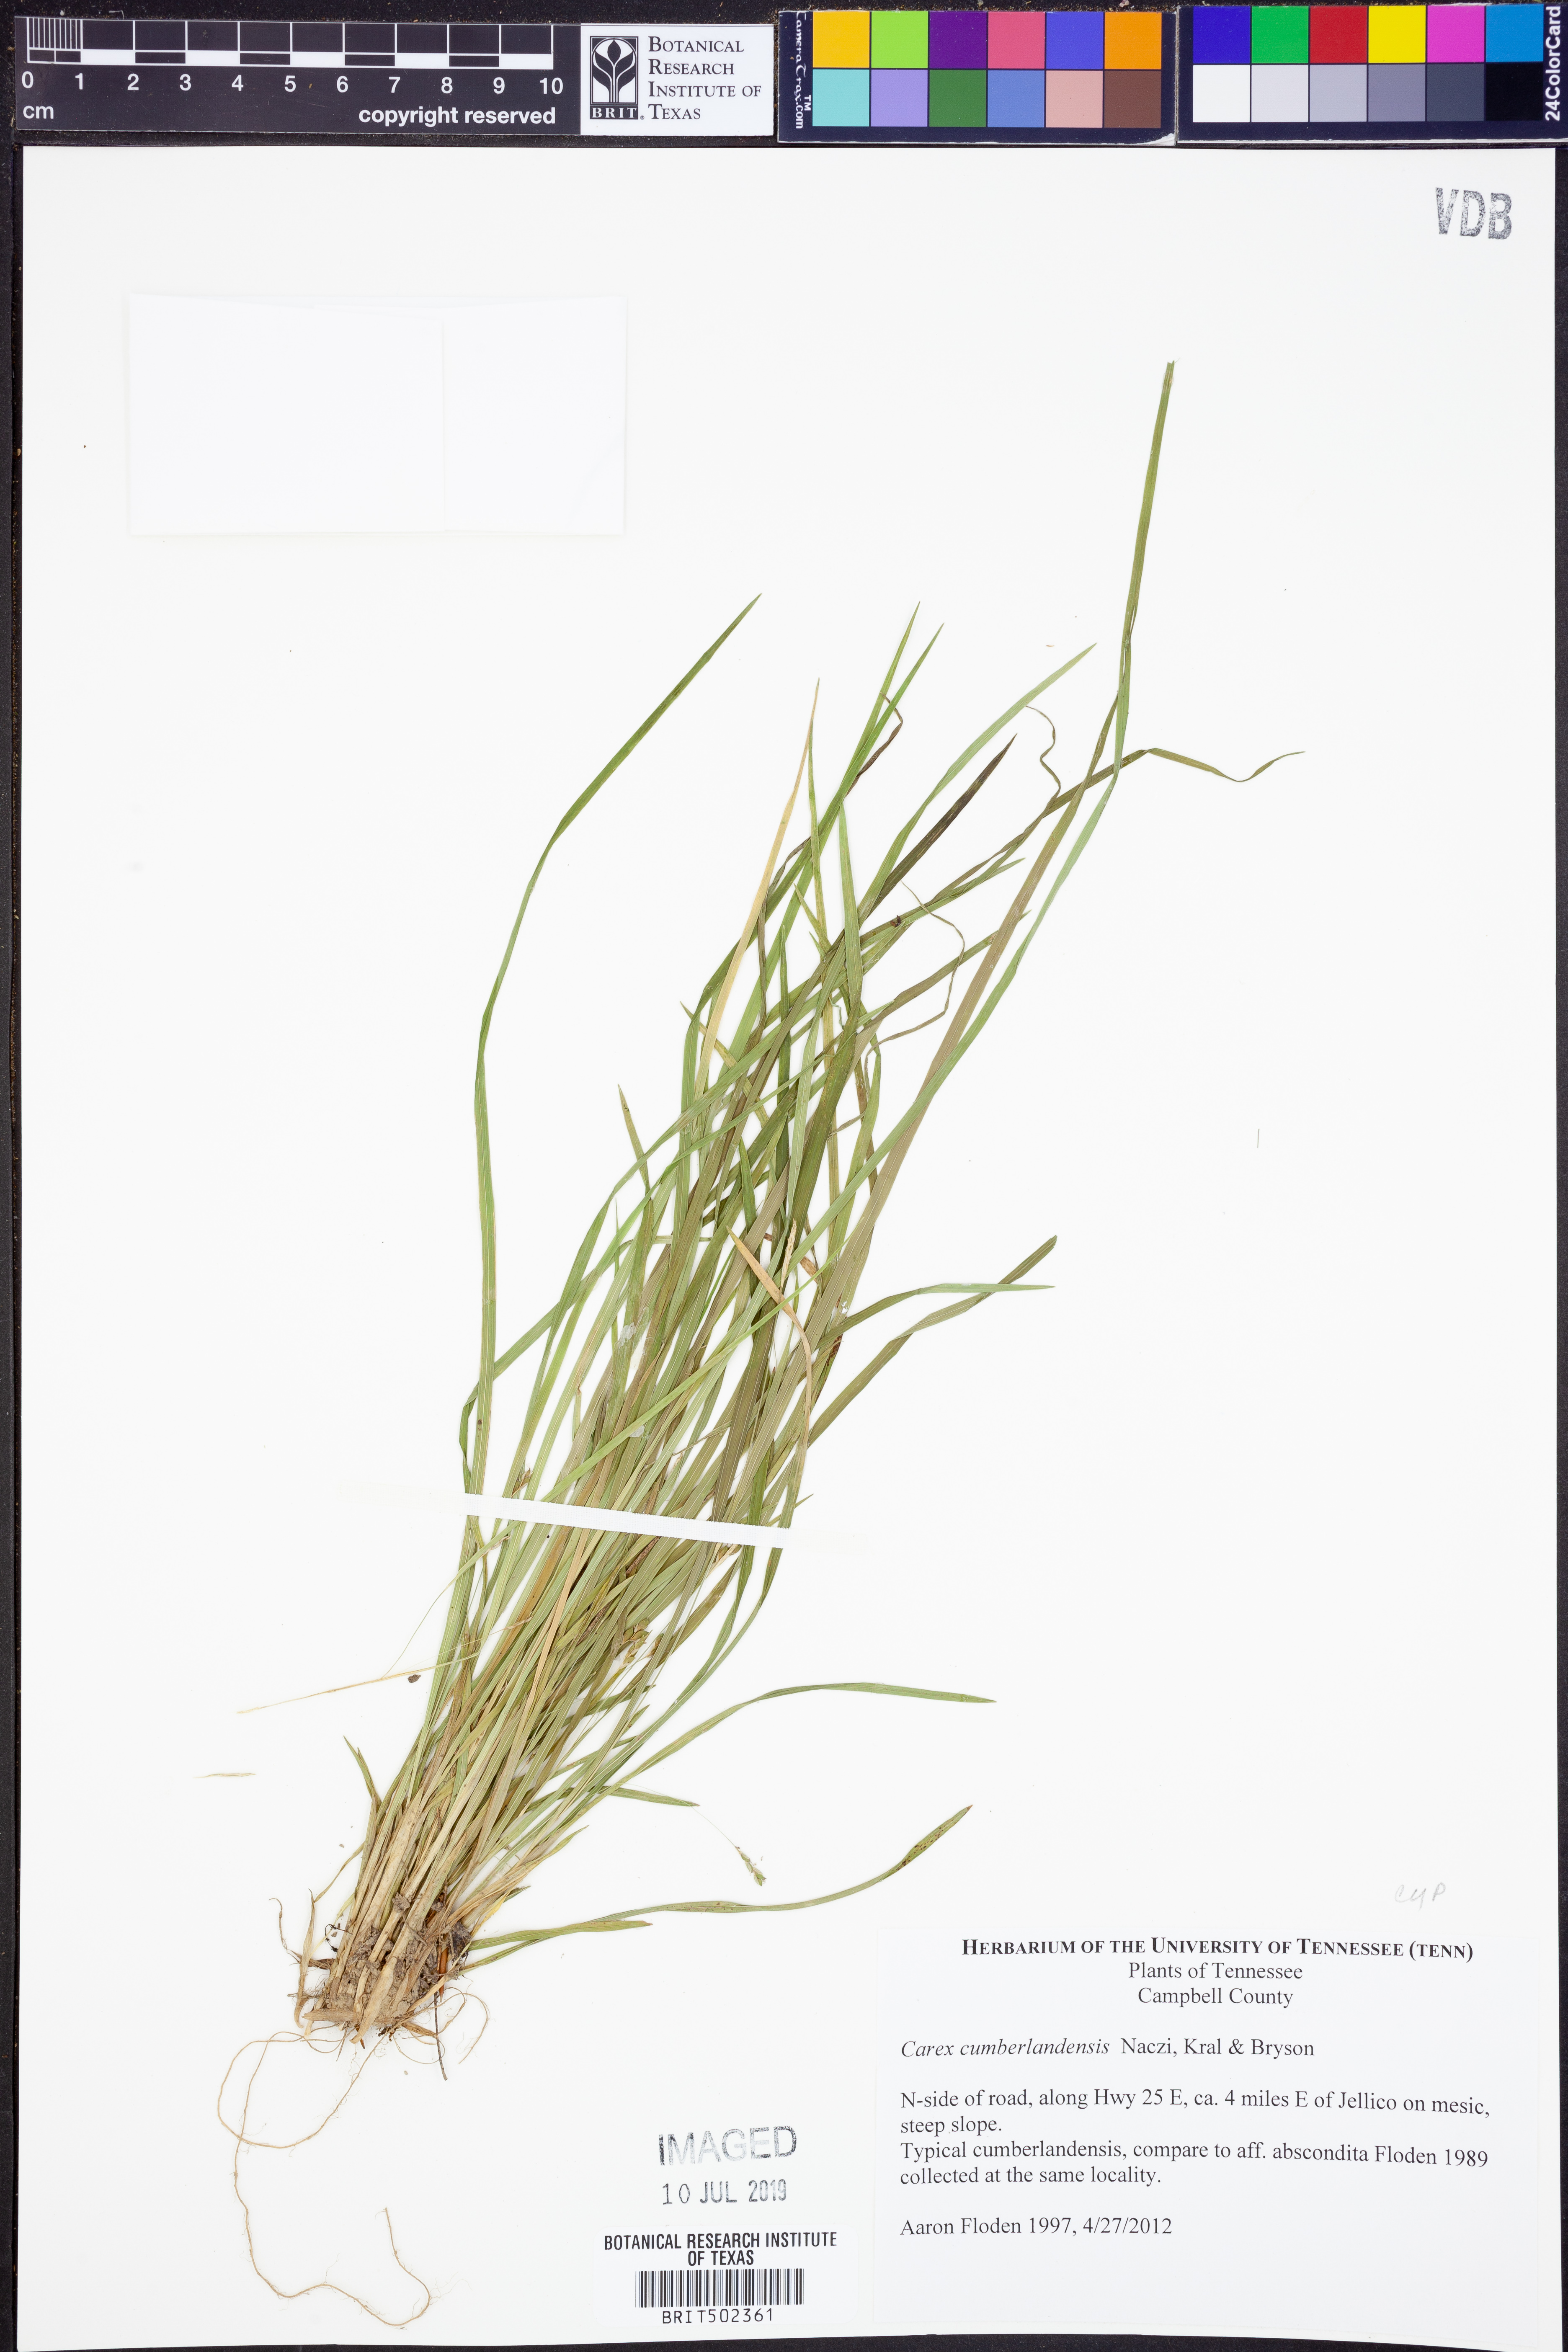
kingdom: Plantae
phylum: Tracheophyta
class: Liliopsida
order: Poales
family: Cyperaceae
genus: Carex
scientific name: Carex cumberlandensis
